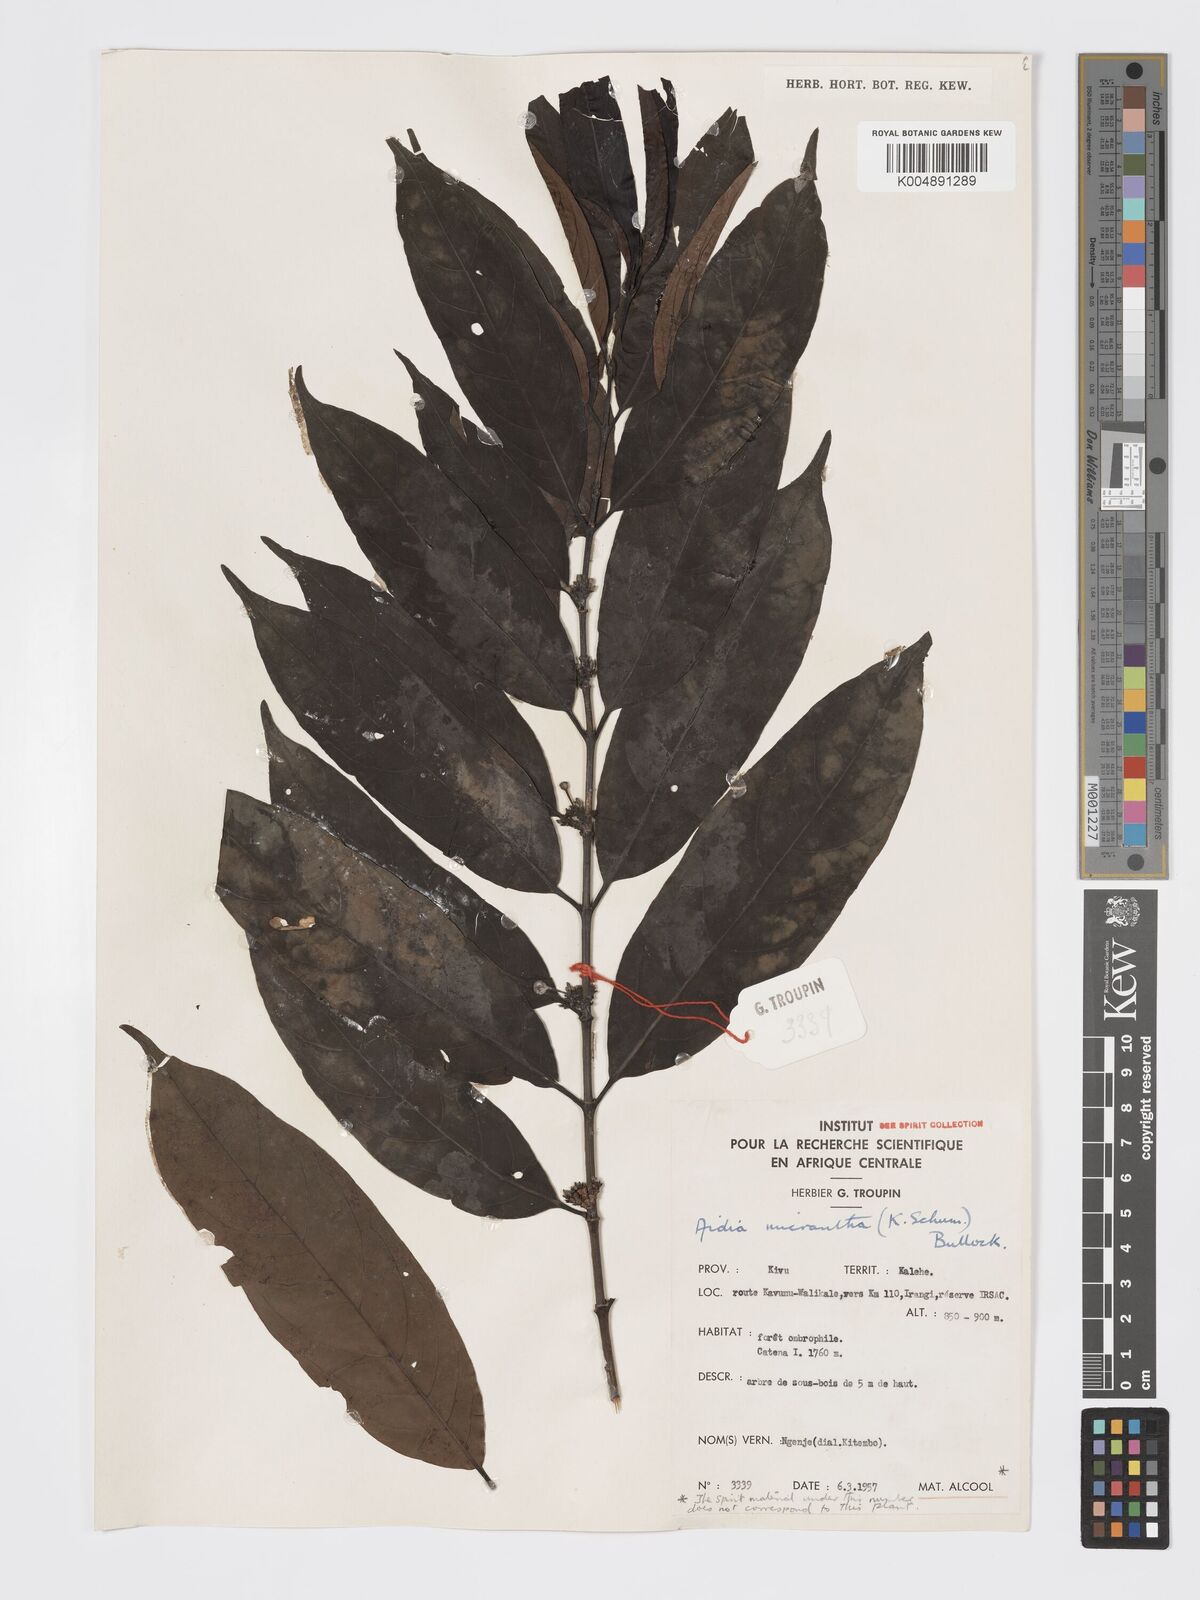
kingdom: Plantae
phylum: Tracheophyta
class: Magnoliopsida
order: Gentianales
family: Rubiaceae
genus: Aidia
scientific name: Aidia micrantha
